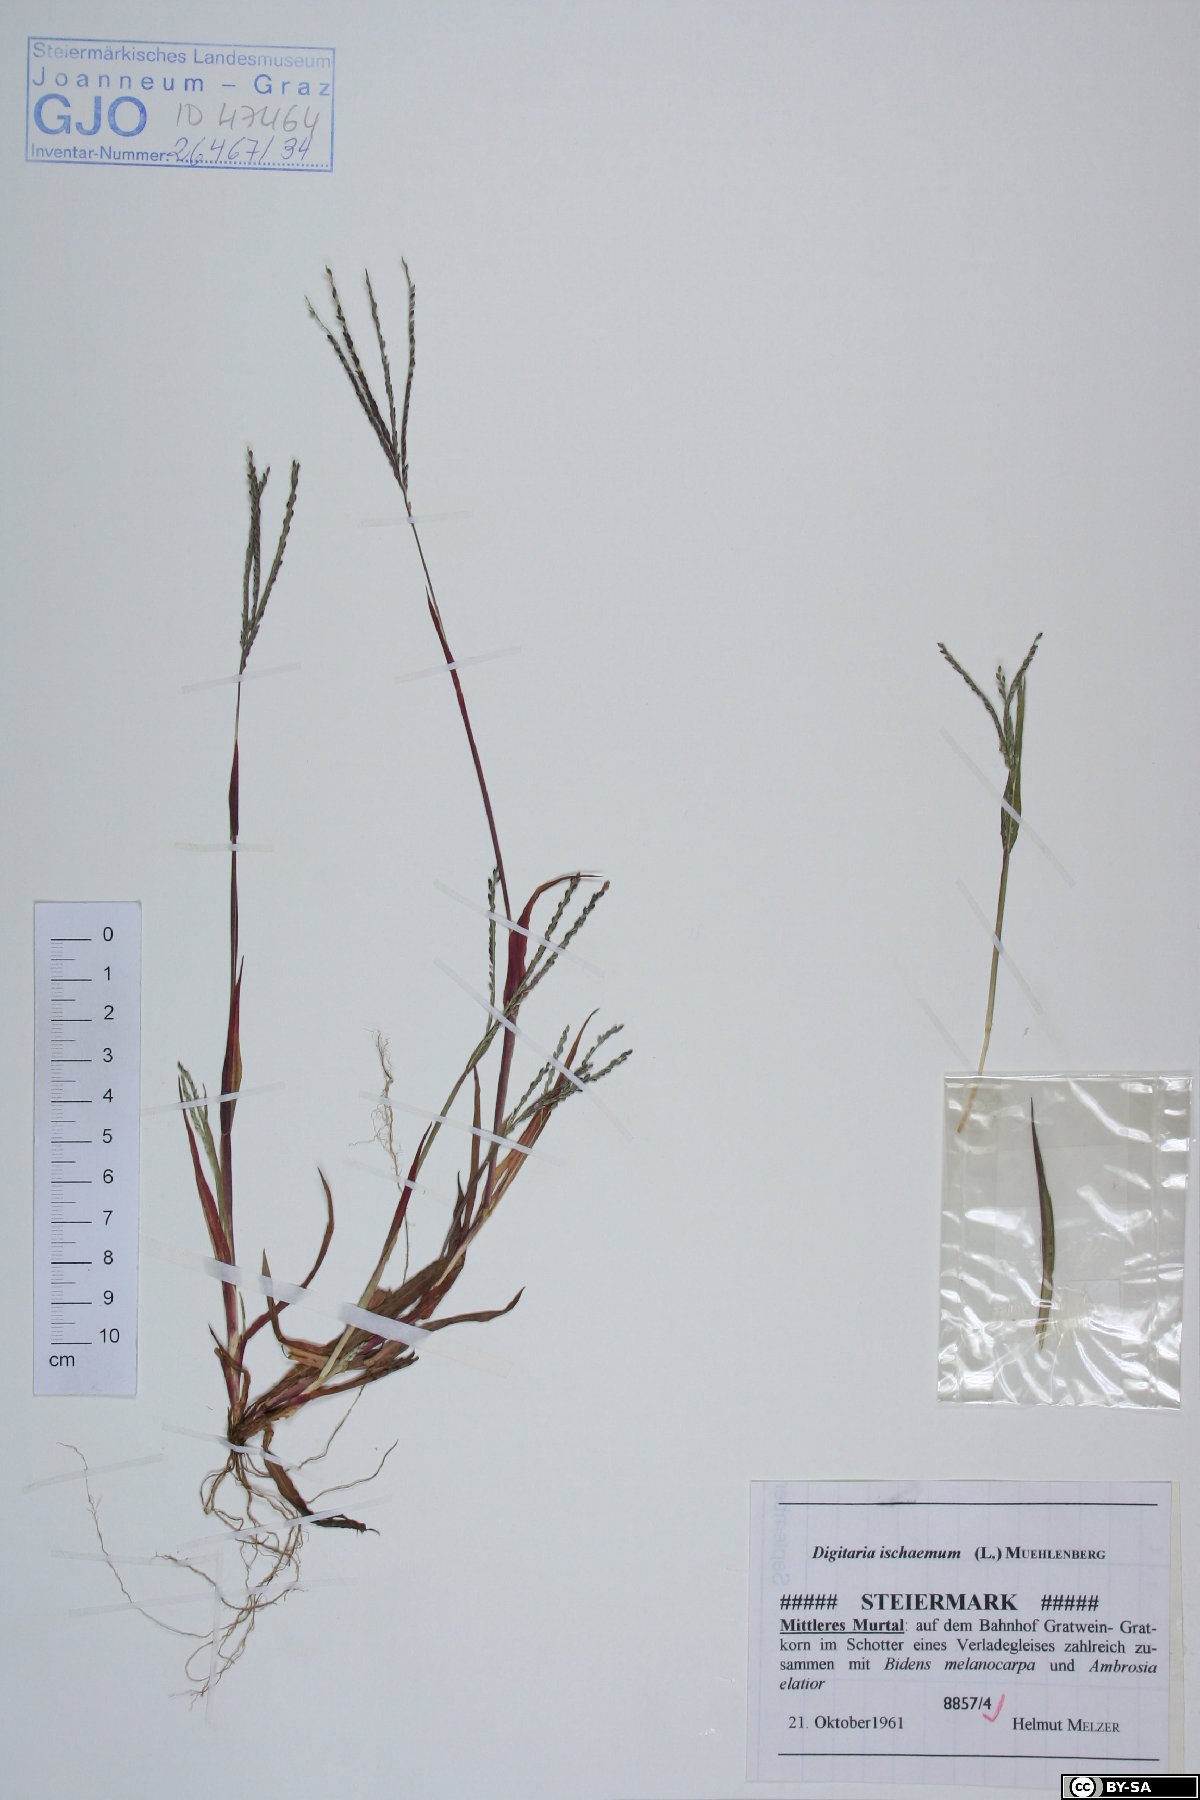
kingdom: Plantae
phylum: Tracheophyta
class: Liliopsida
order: Poales
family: Poaceae
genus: Digitaria
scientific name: Digitaria ischaemum
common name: Smooth crabgrass
